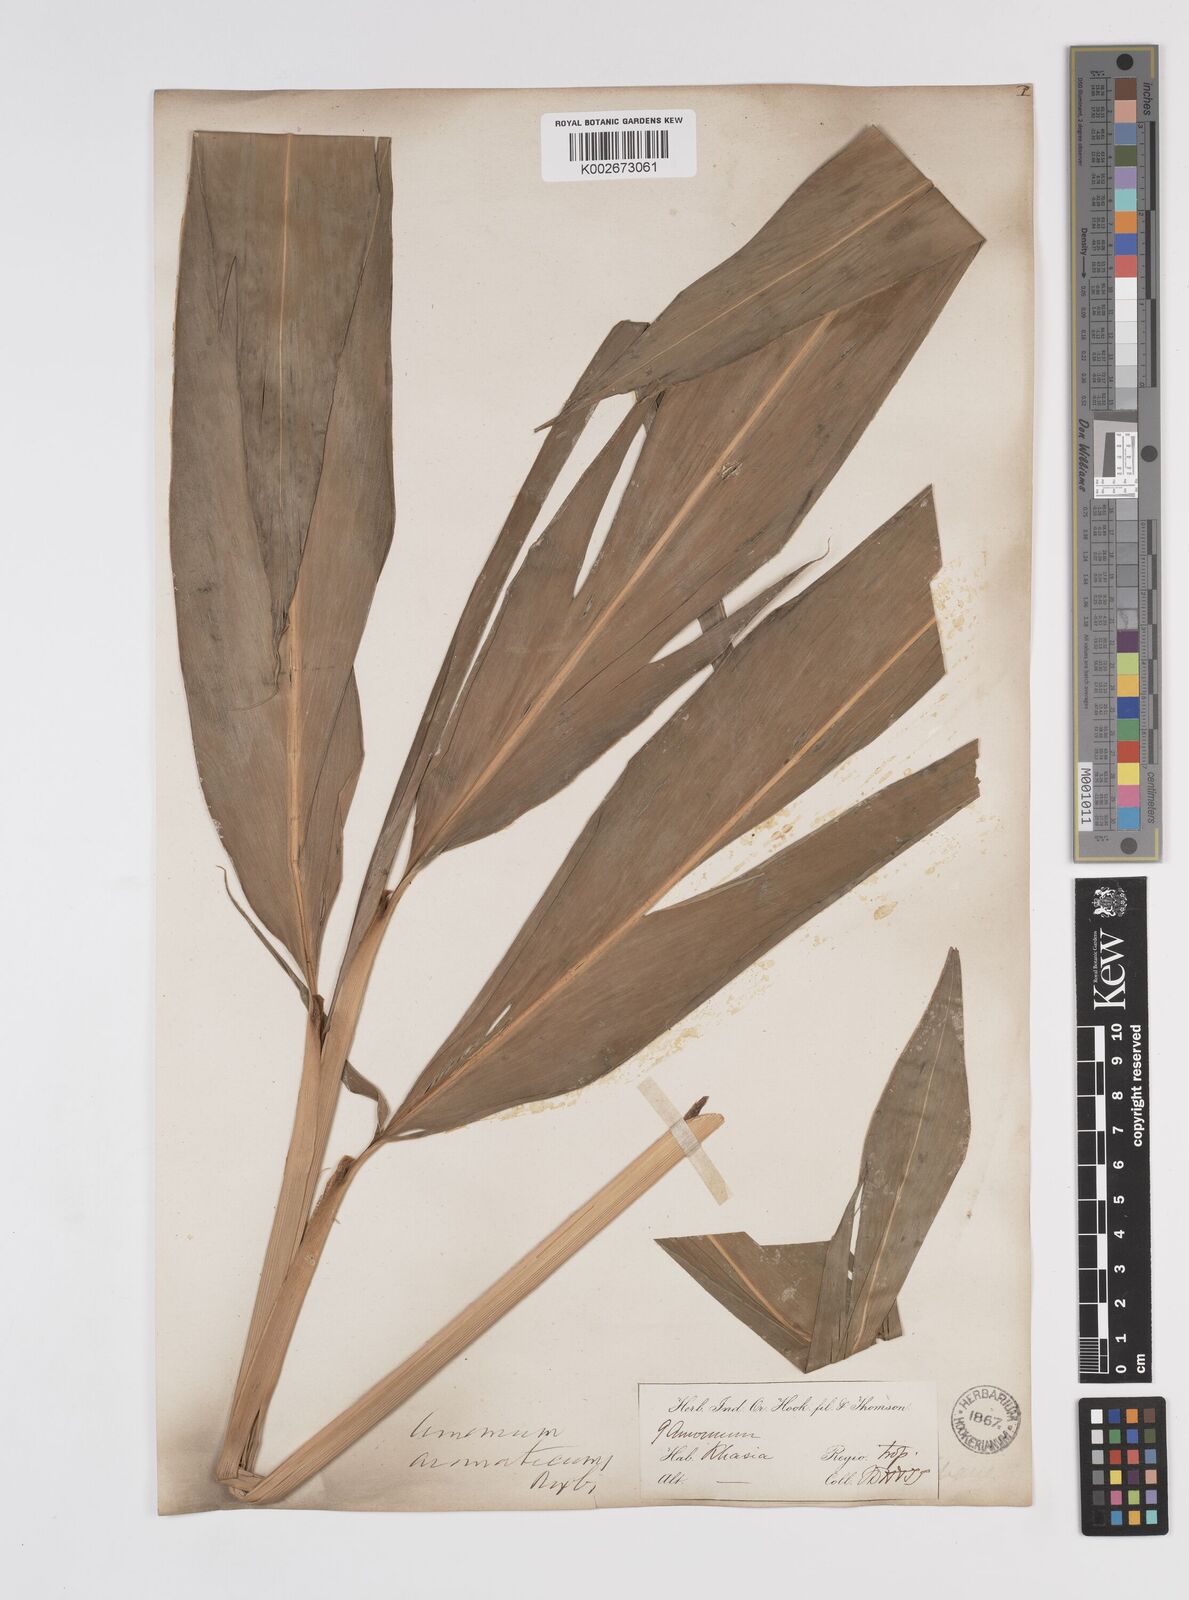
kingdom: Plantae
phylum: Tracheophyta
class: Liliopsida
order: Zingiberales
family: Zingiberaceae
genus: Wurfbainia
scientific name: Wurfbainia aromatica
